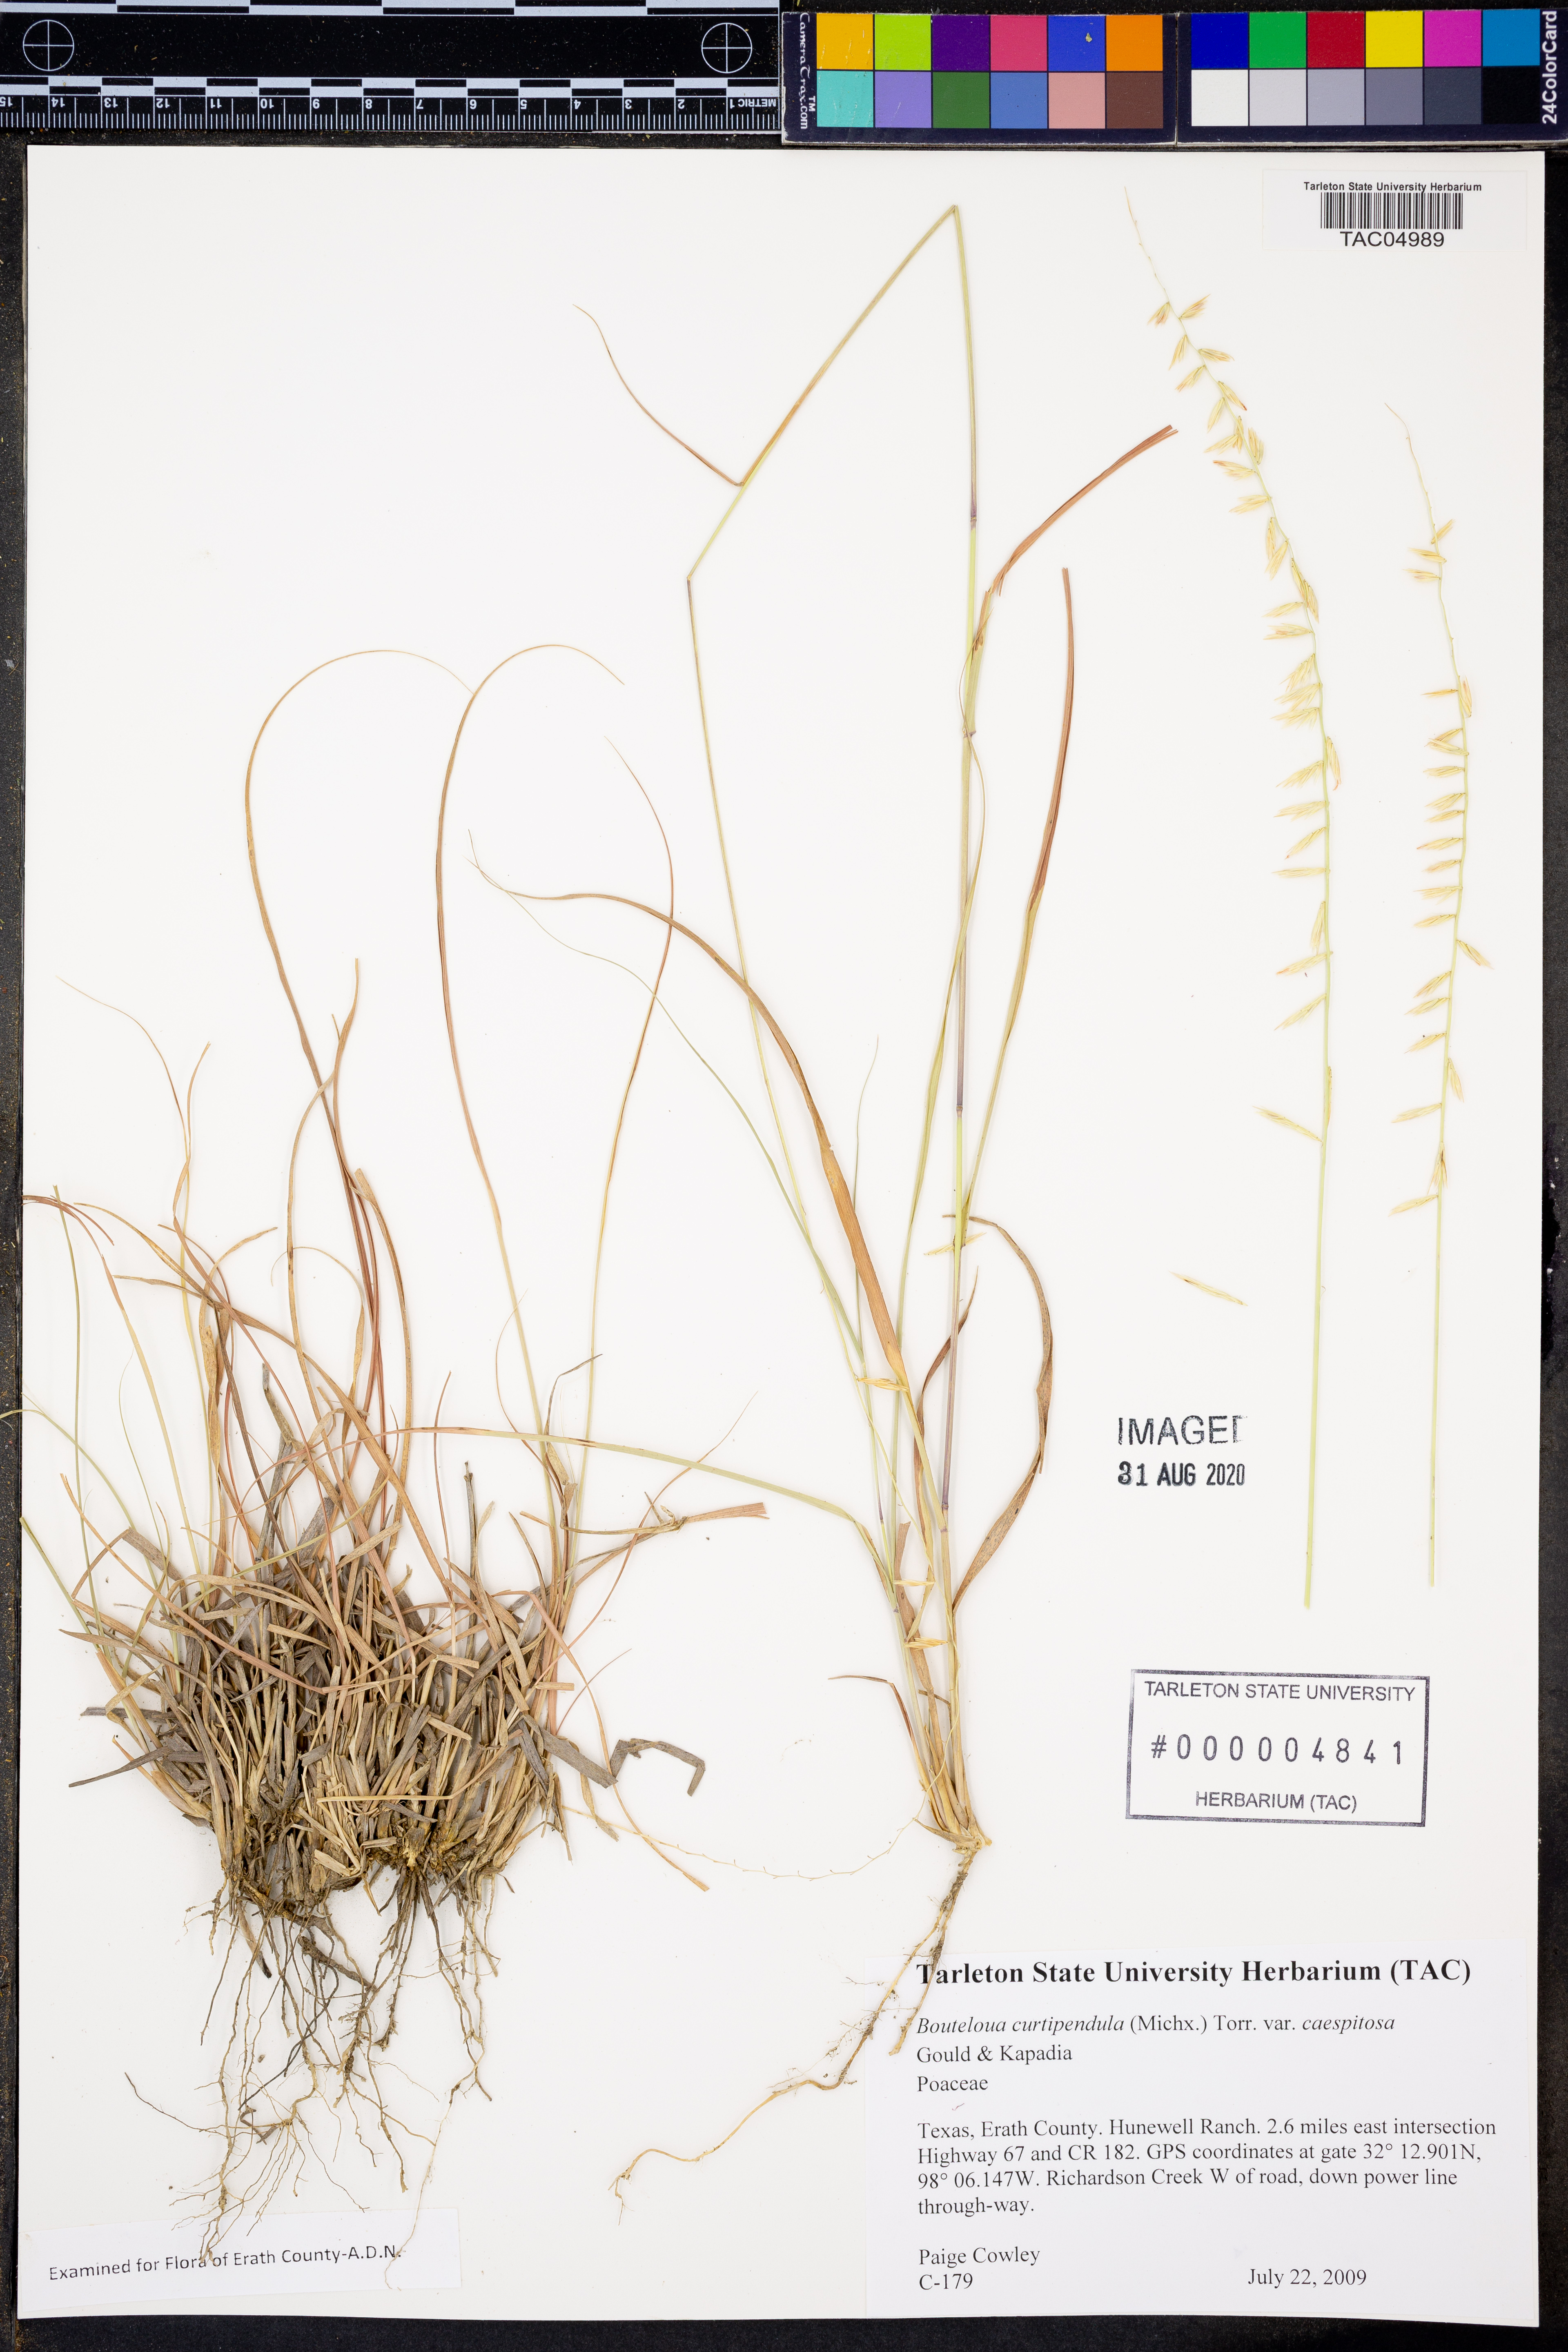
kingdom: Plantae
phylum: Tracheophyta
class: Liliopsida
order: Poales
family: Poaceae
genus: Bouteloua
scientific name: Bouteloua curtipendula
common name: Side-oats grama
